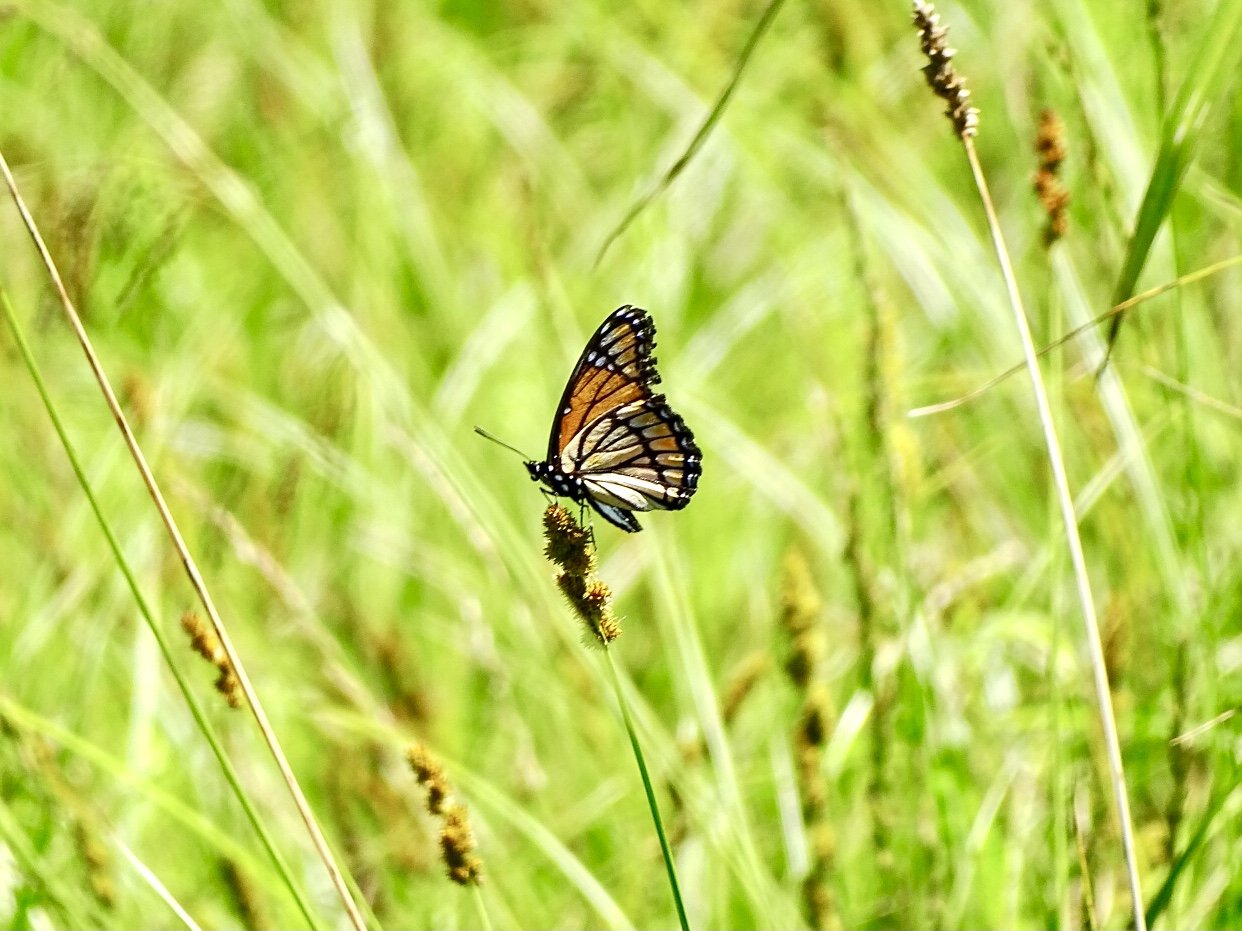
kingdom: Animalia
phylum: Arthropoda
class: Insecta
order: Lepidoptera
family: Nymphalidae
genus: Limenitis
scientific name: Limenitis archippus
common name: Viceroy
